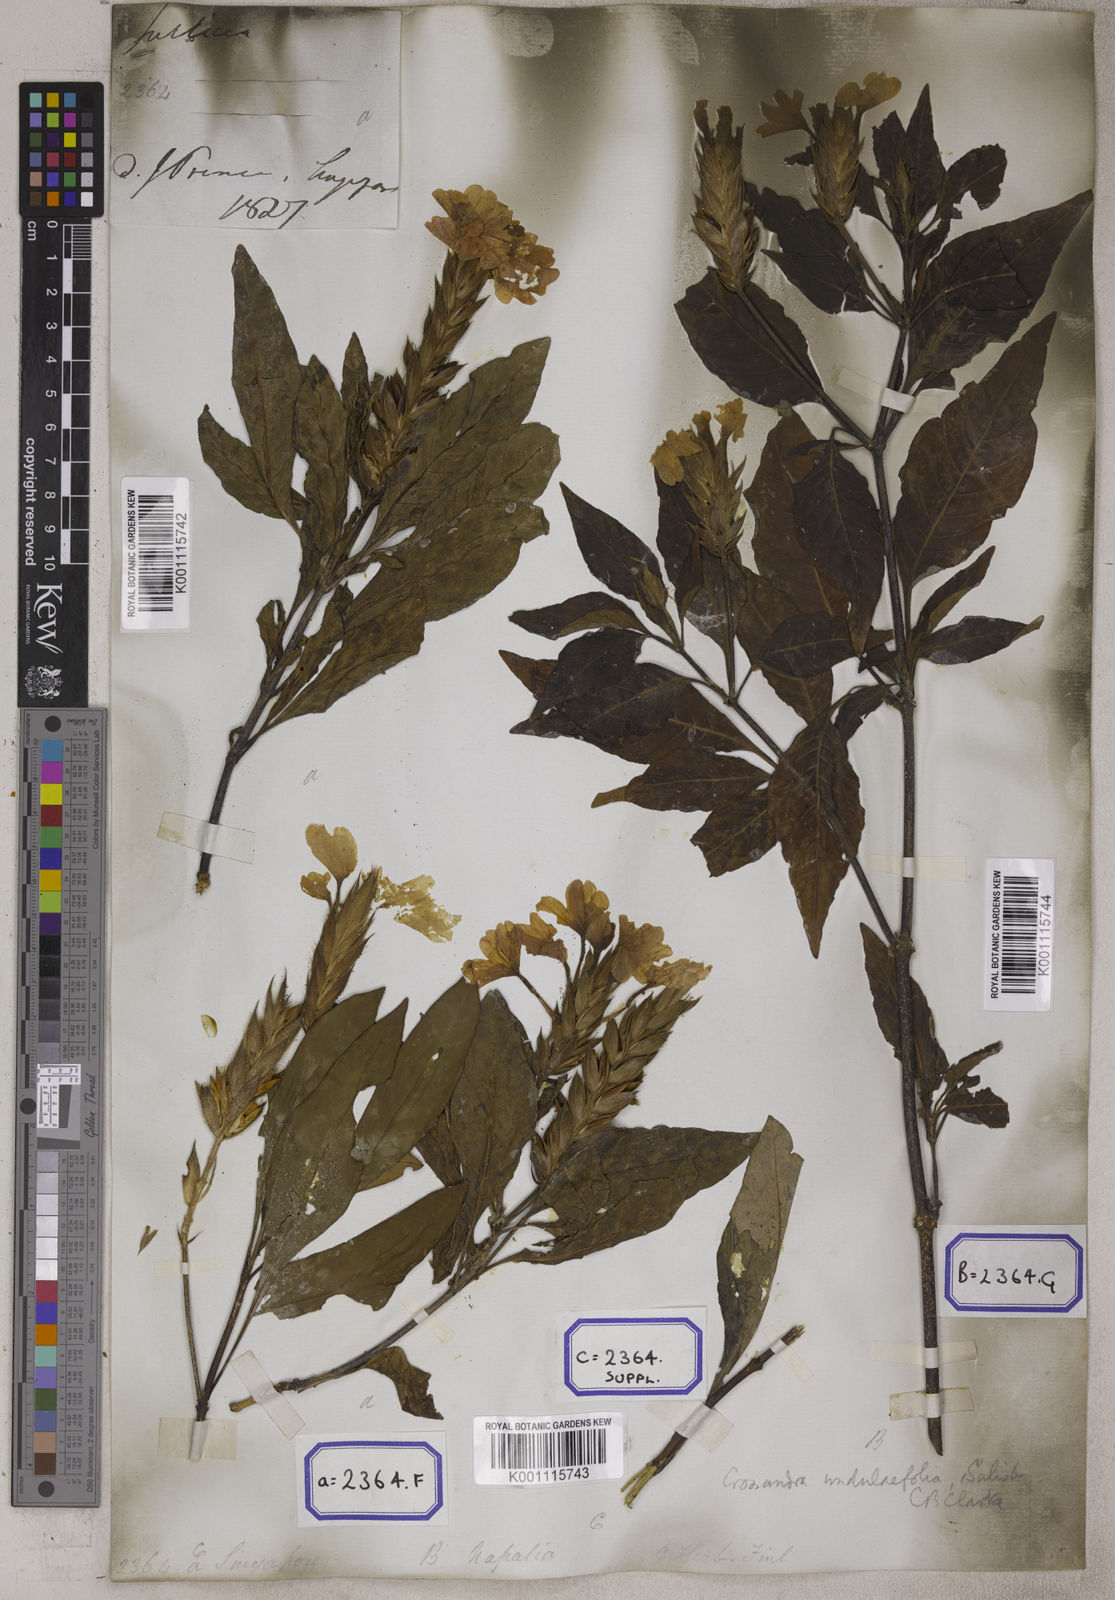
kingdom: Plantae
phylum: Tracheophyta
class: Magnoliopsida
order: Lamiales
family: Acanthaceae
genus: Crossandra
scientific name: Crossandra infundibuliformis
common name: Firecracker-flower
